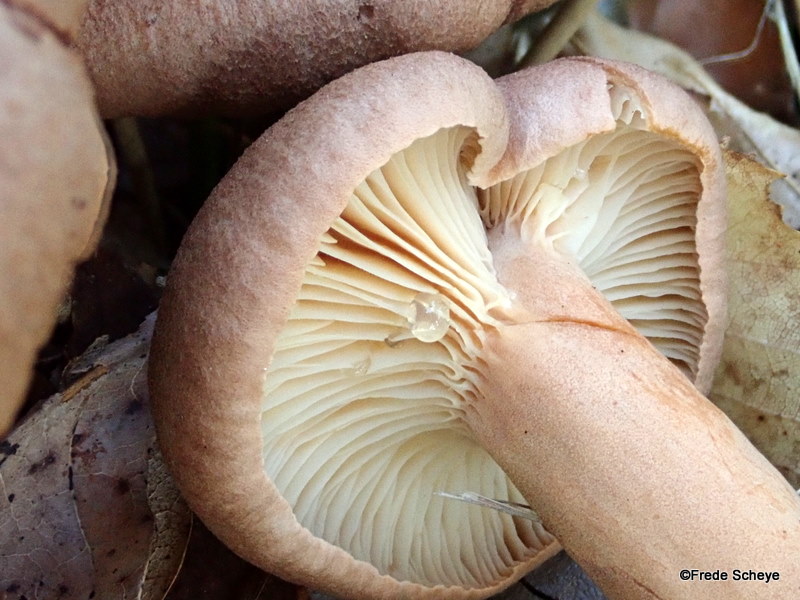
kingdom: Fungi
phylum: Basidiomycota
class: Agaricomycetes
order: Russulales
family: Russulaceae
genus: Lactarius
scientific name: Lactarius helvus
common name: mose-mælkehat
